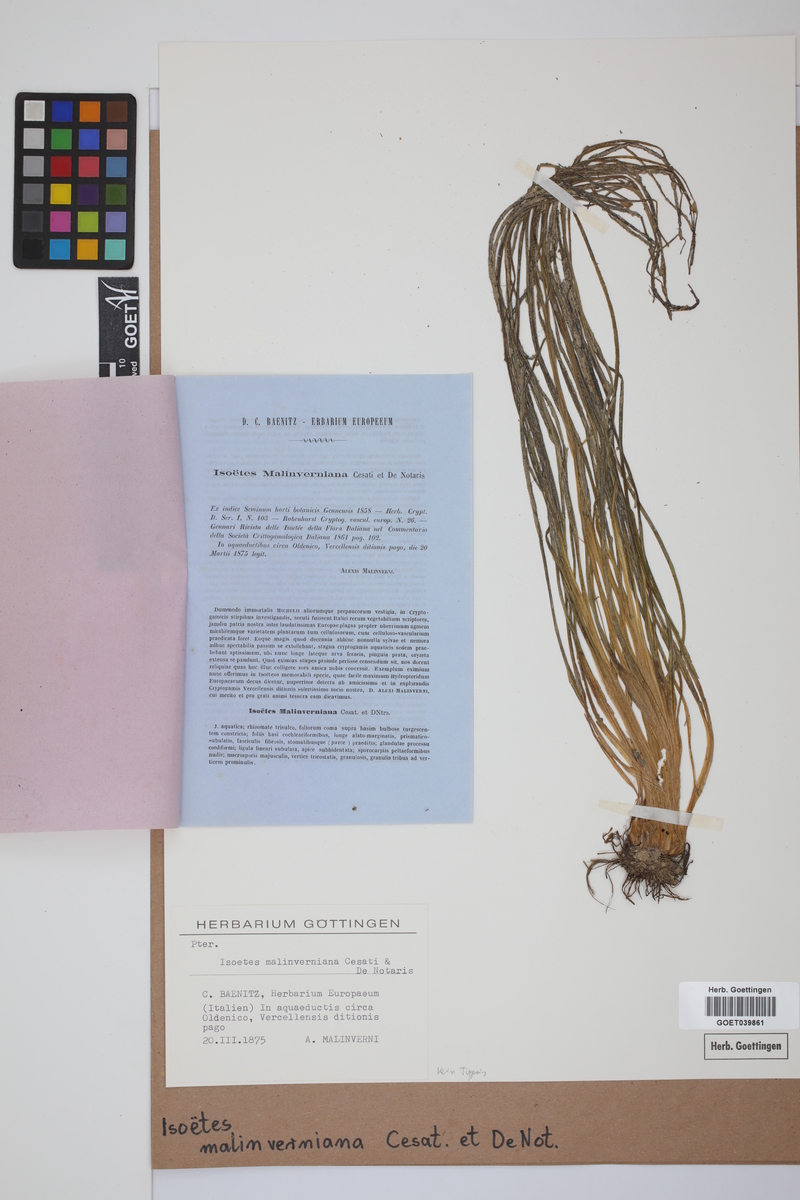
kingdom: Plantae
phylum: Tracheophyta
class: Lycopodiopsida
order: Isoetales
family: Isoetaceae
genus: Isoetes
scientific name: Isoetes malinverniana
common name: Piedmont quillwort
